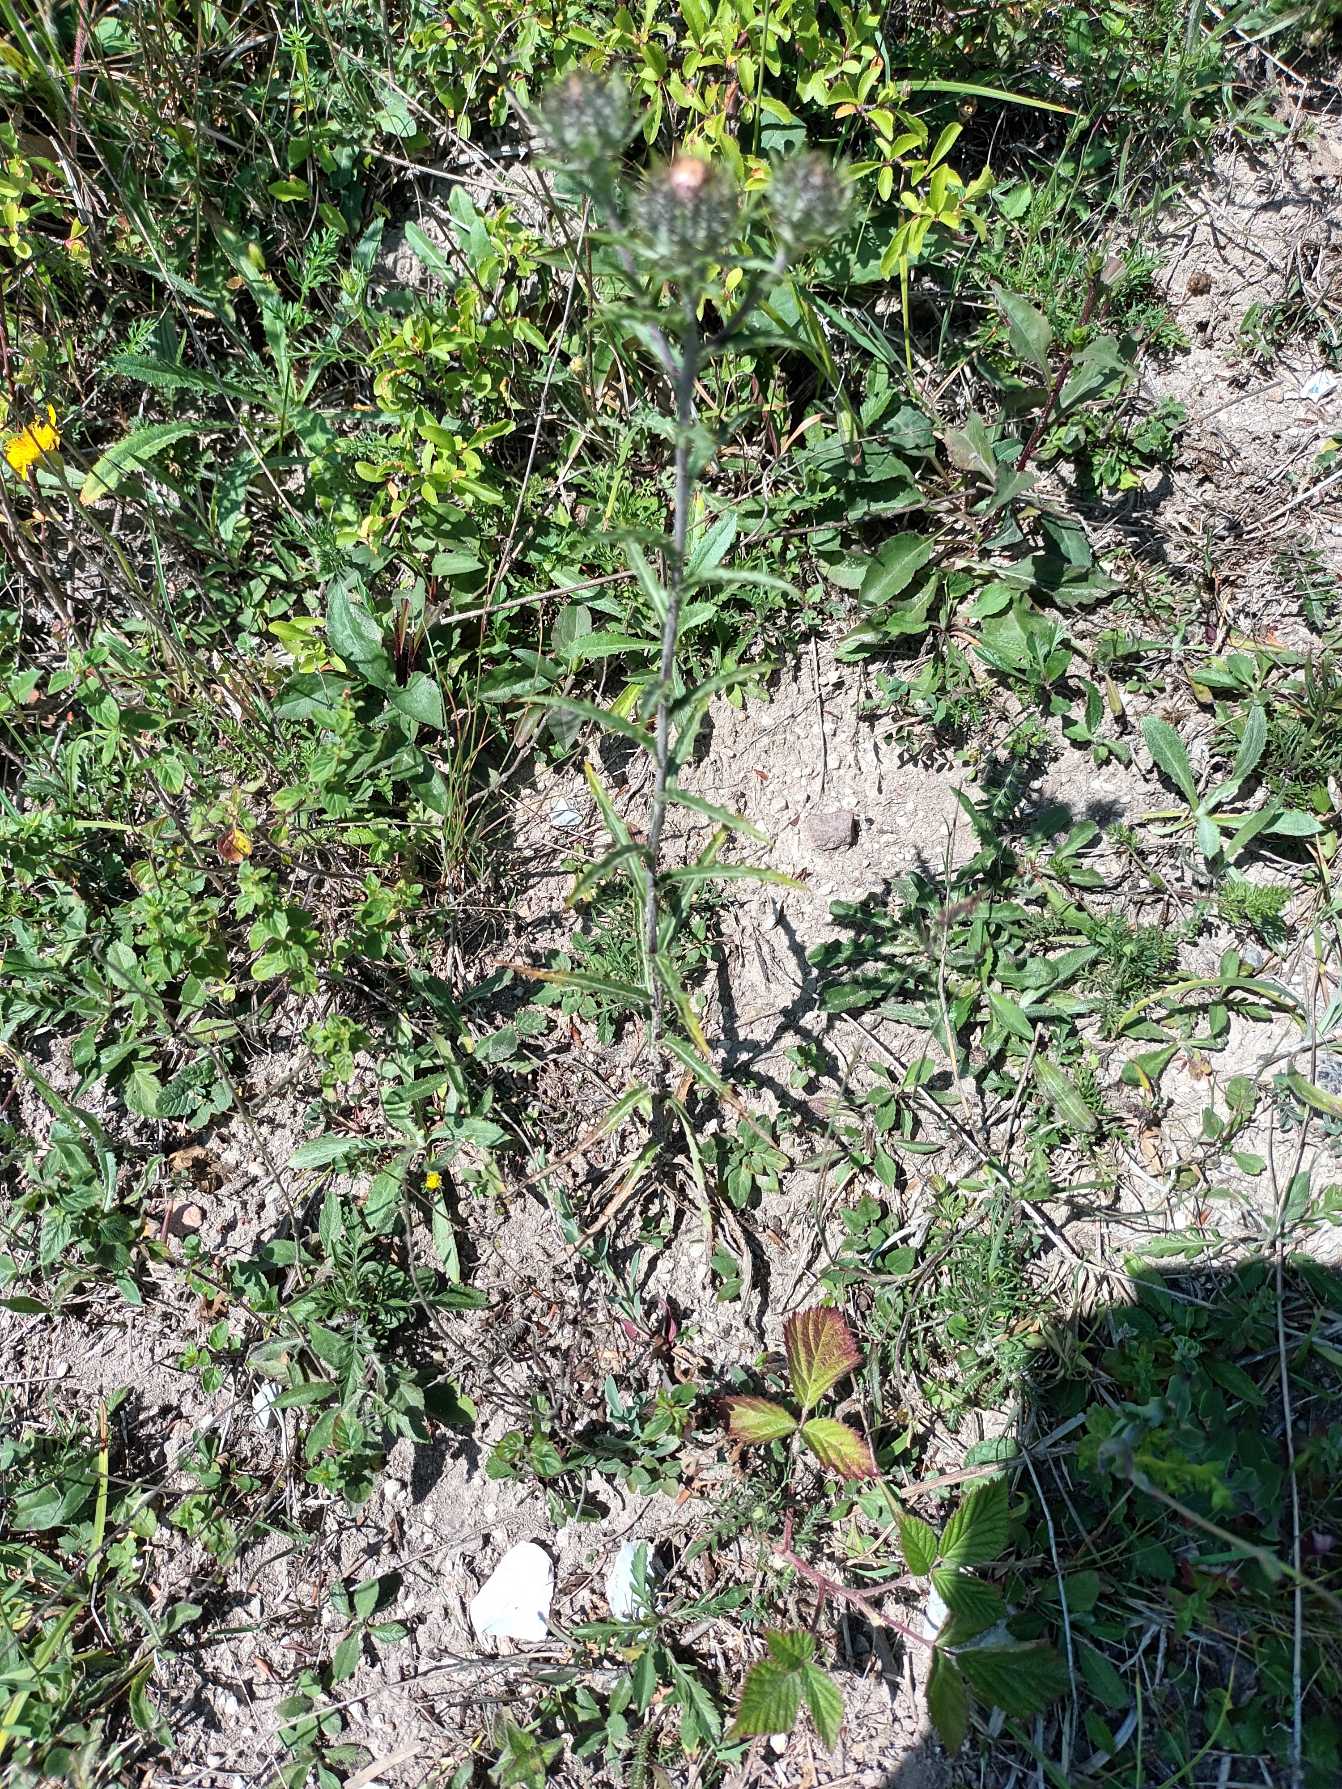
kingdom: Plantae
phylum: Tracheophyta
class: Magnoliopsida
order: Asterales
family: Asteraceae
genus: Carlina
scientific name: Carlina biebersteinii
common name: Langbladet bakketidsel
